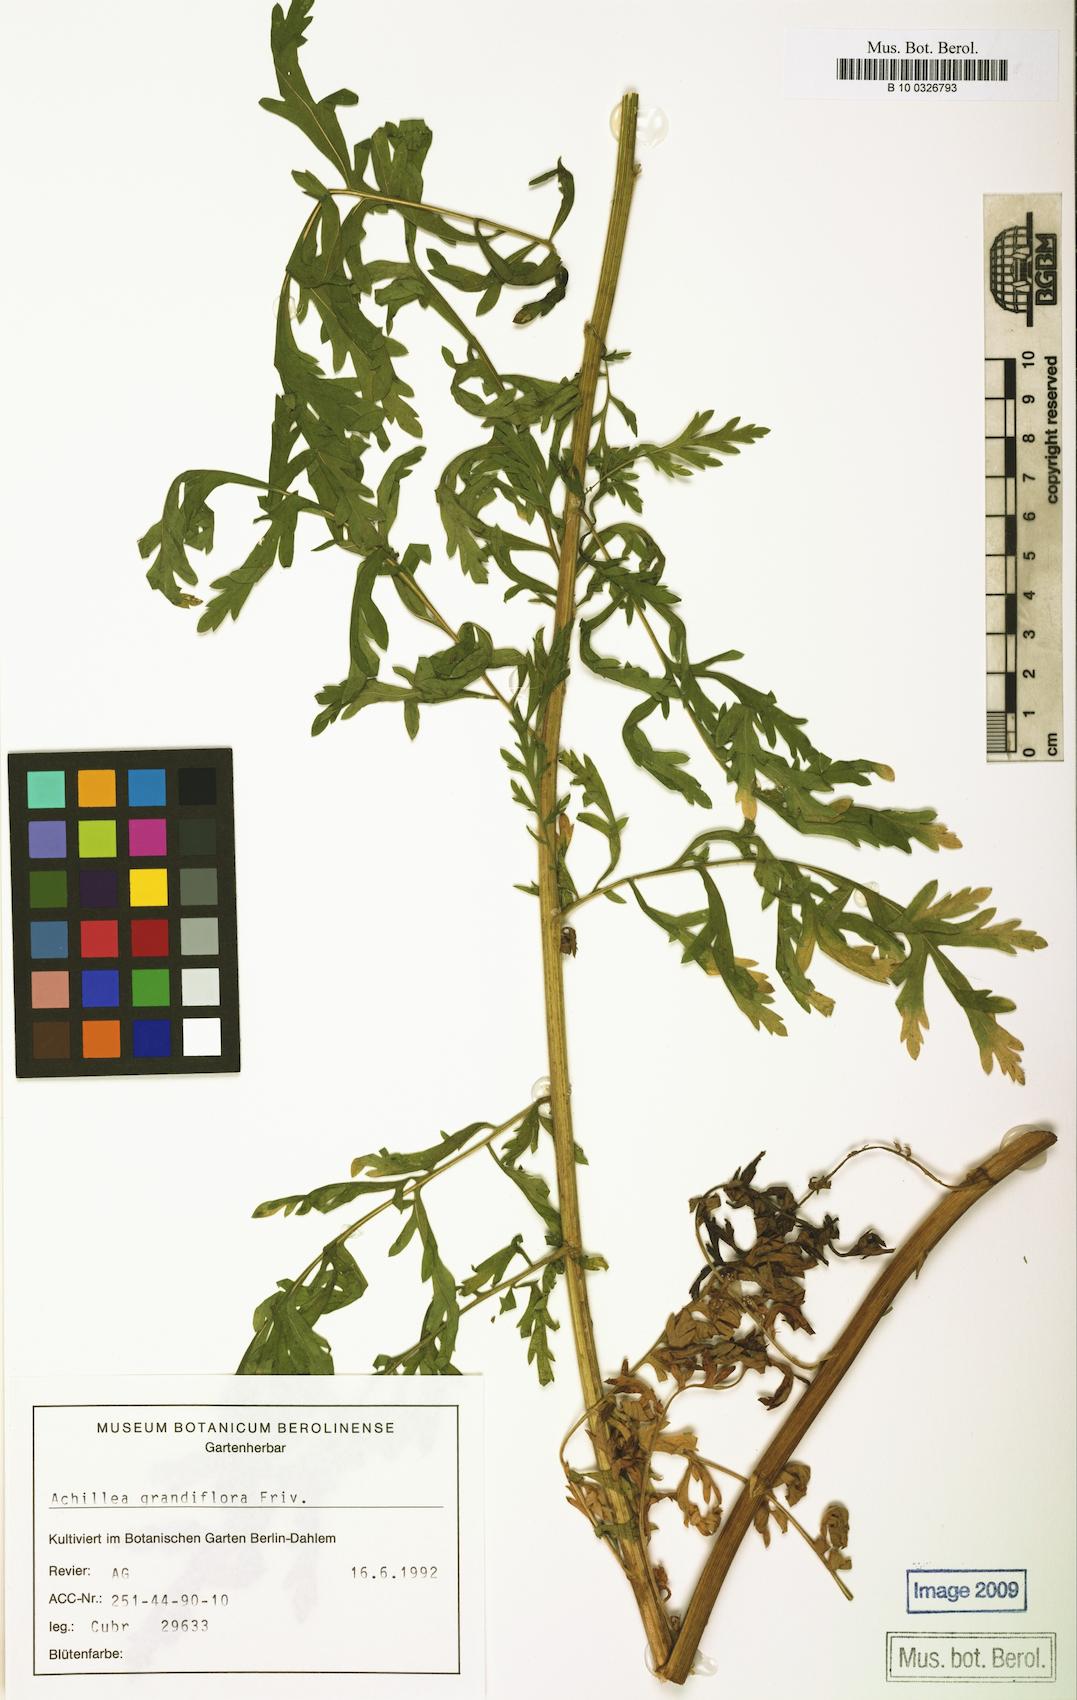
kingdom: Plantae
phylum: Tracheophyta
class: Magnoliopsida
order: Asterales
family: Asteraceae
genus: Achillea
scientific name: Achillea grandifolia
